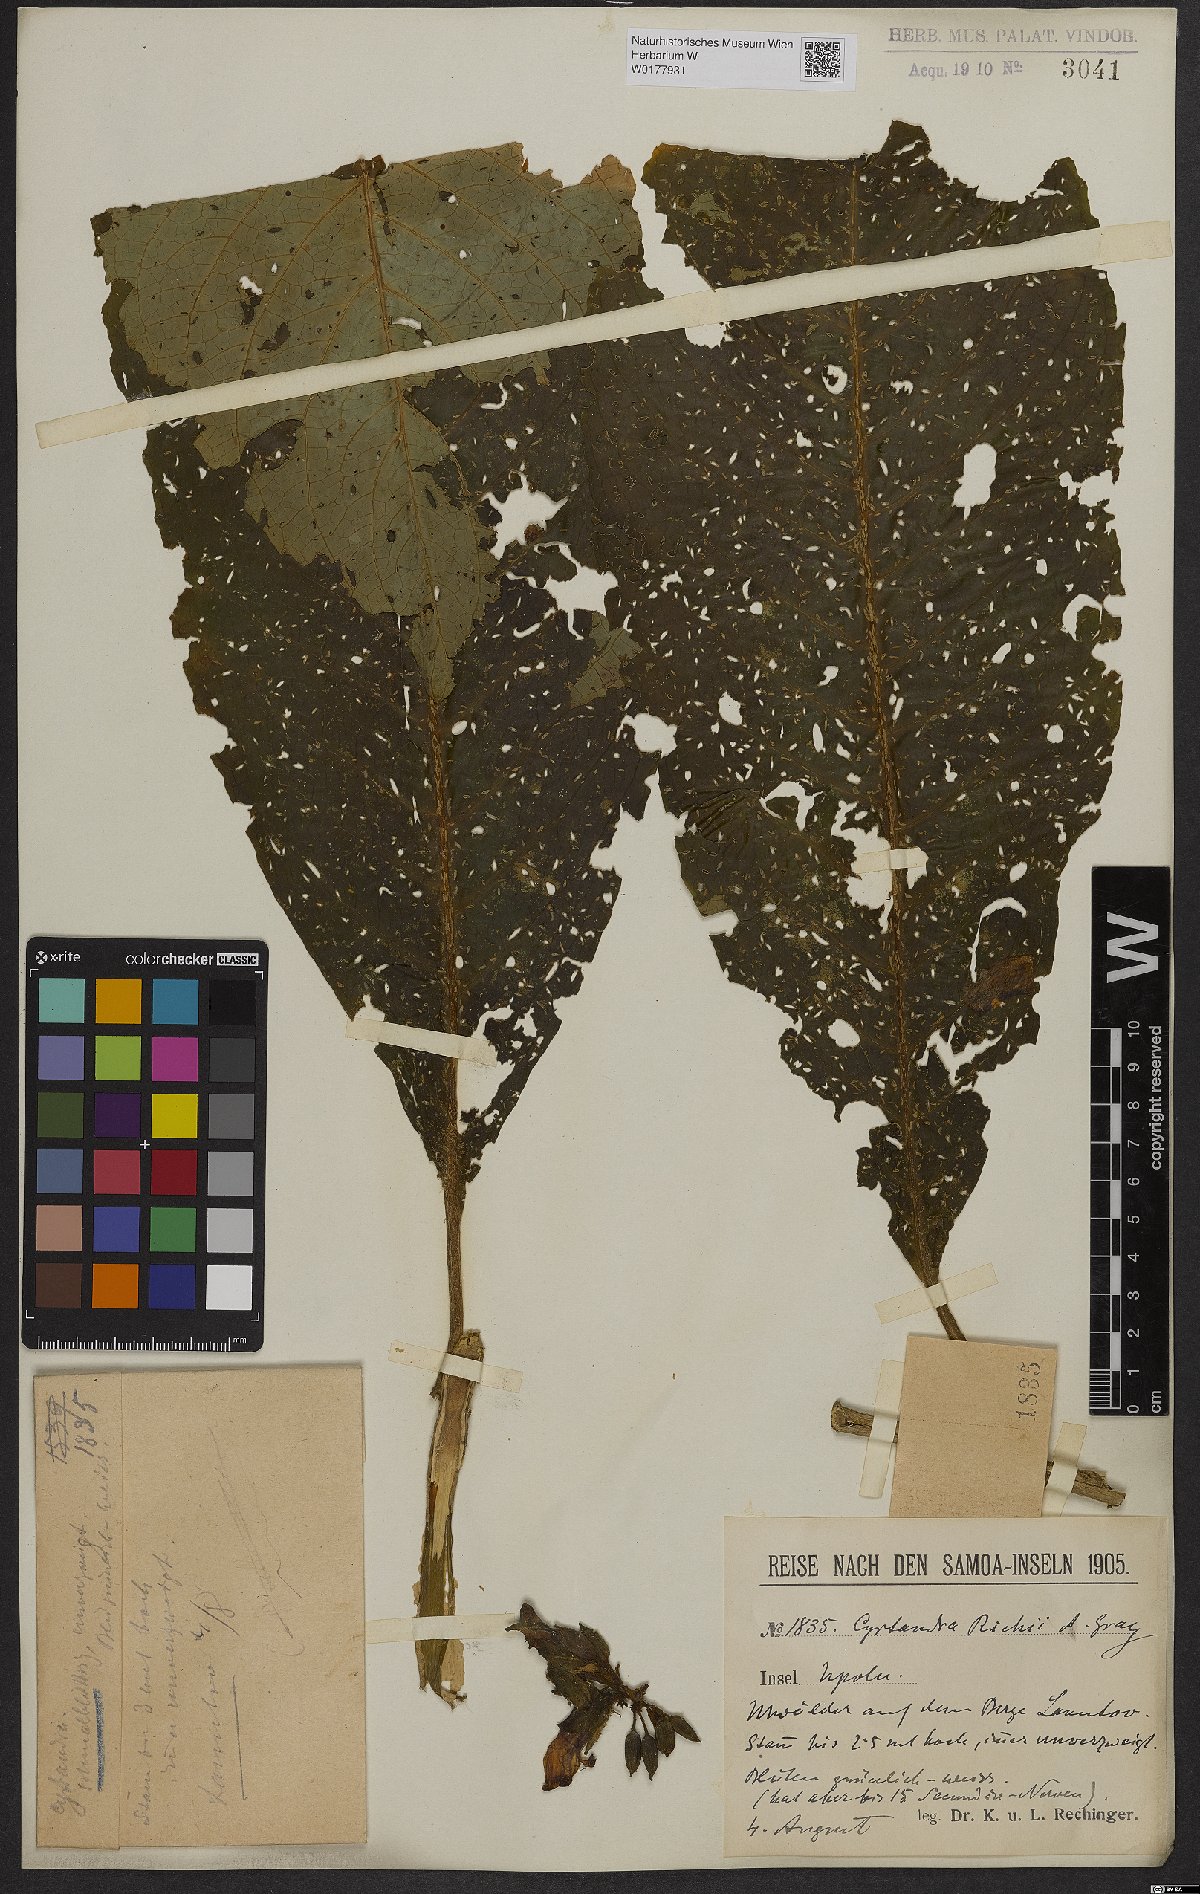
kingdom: Plantae
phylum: Tracheophyta
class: Magnoliopsida
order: Lamiales
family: Gesneriaceae
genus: Cyrtandra
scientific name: Cyrtandra richii
